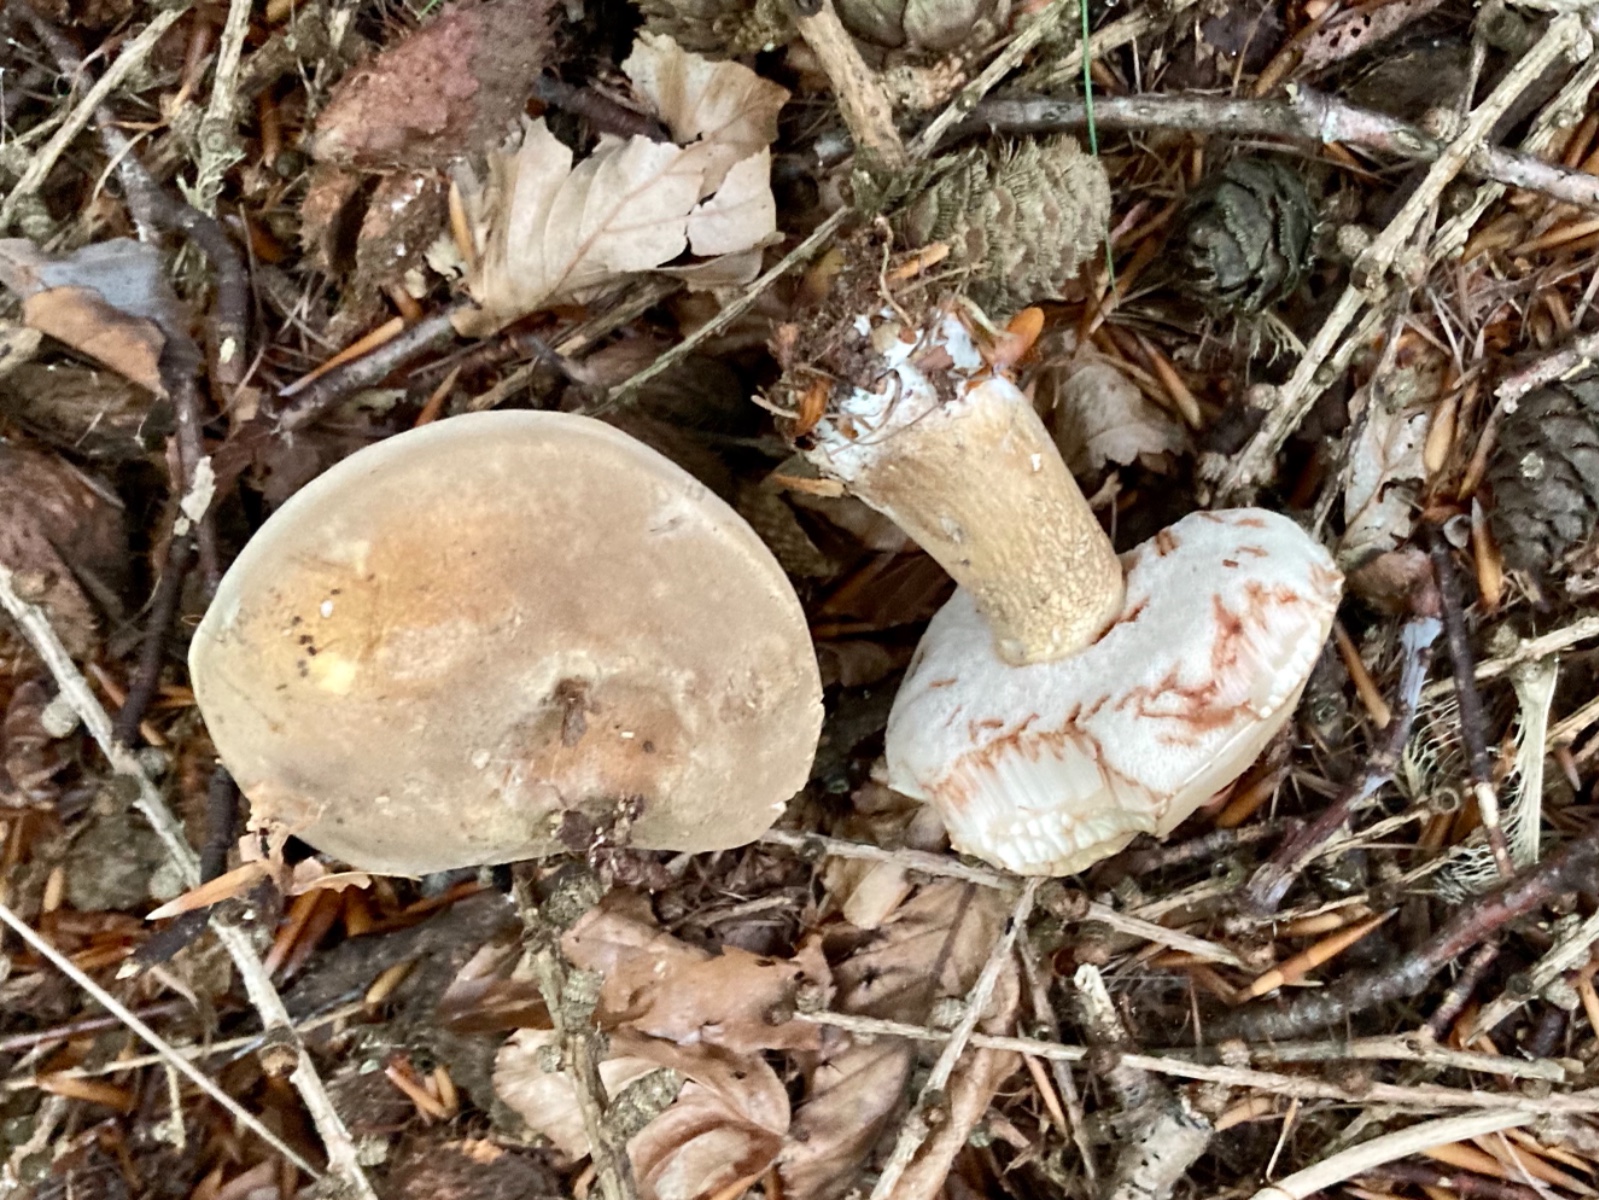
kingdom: Fungi
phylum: Basidiomycota
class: Agaricomycetes
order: Boletales
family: Boletaceae
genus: Tylopilus
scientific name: Tylopilus felleus
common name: galderørhat
